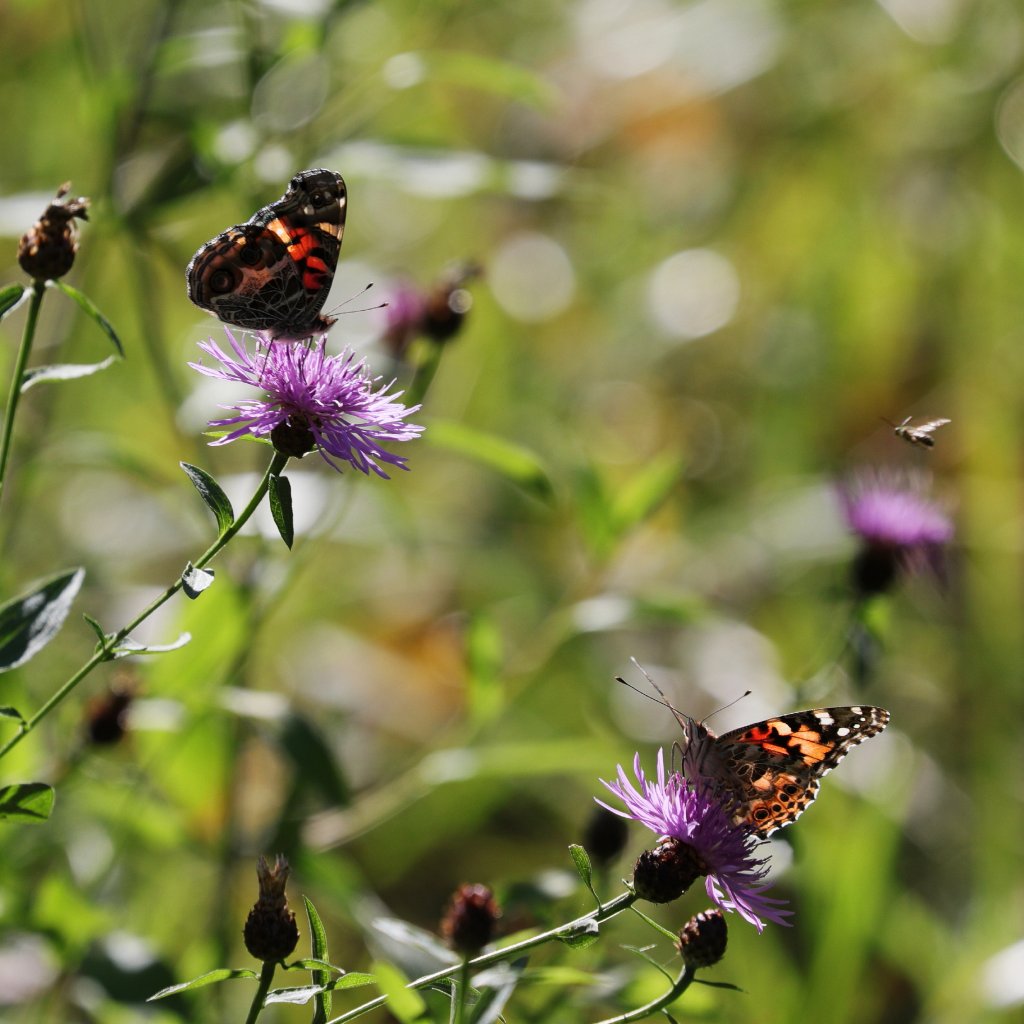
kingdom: Animalia
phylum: Arthropoda
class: Insecta
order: Lepidoptera
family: Nymphalidae
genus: Vanessa
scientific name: Vanessa cardui
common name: Painted Lady
